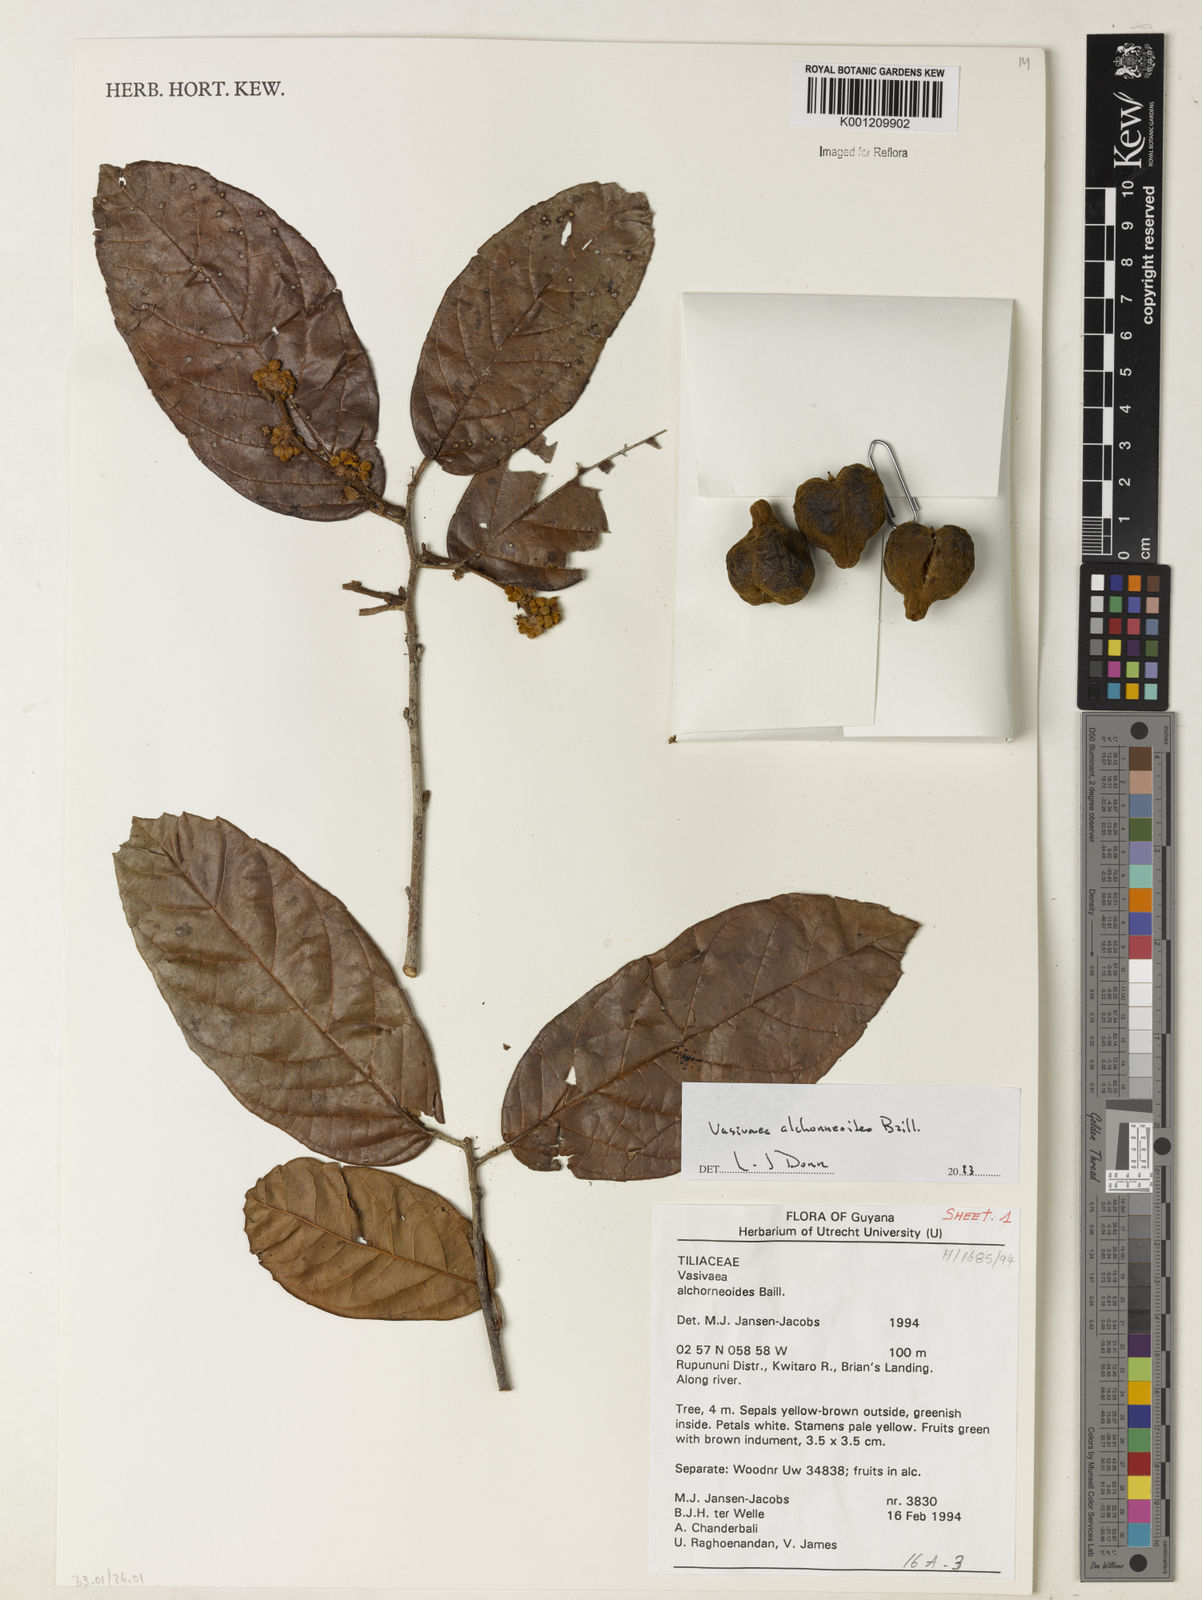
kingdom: Plantae
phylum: Tracheophyta
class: Magnoliopsida
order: Malvales
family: Malvaceae
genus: Vasivaea
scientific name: Vasivaea alchorneoides
